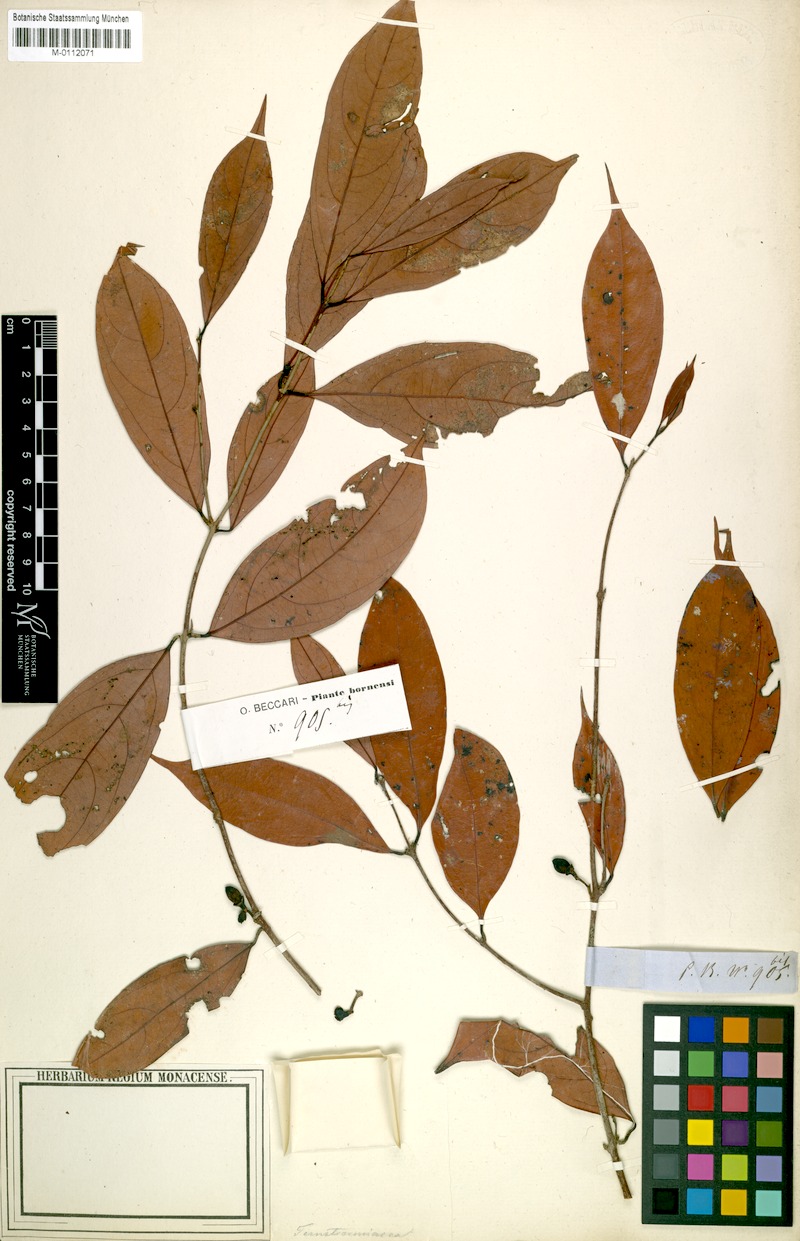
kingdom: Plantae
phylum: Tracheophyta
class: Magnoliopsida
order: Laurales
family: Lauraceae
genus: Litsea
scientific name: Litsea lanceolata
